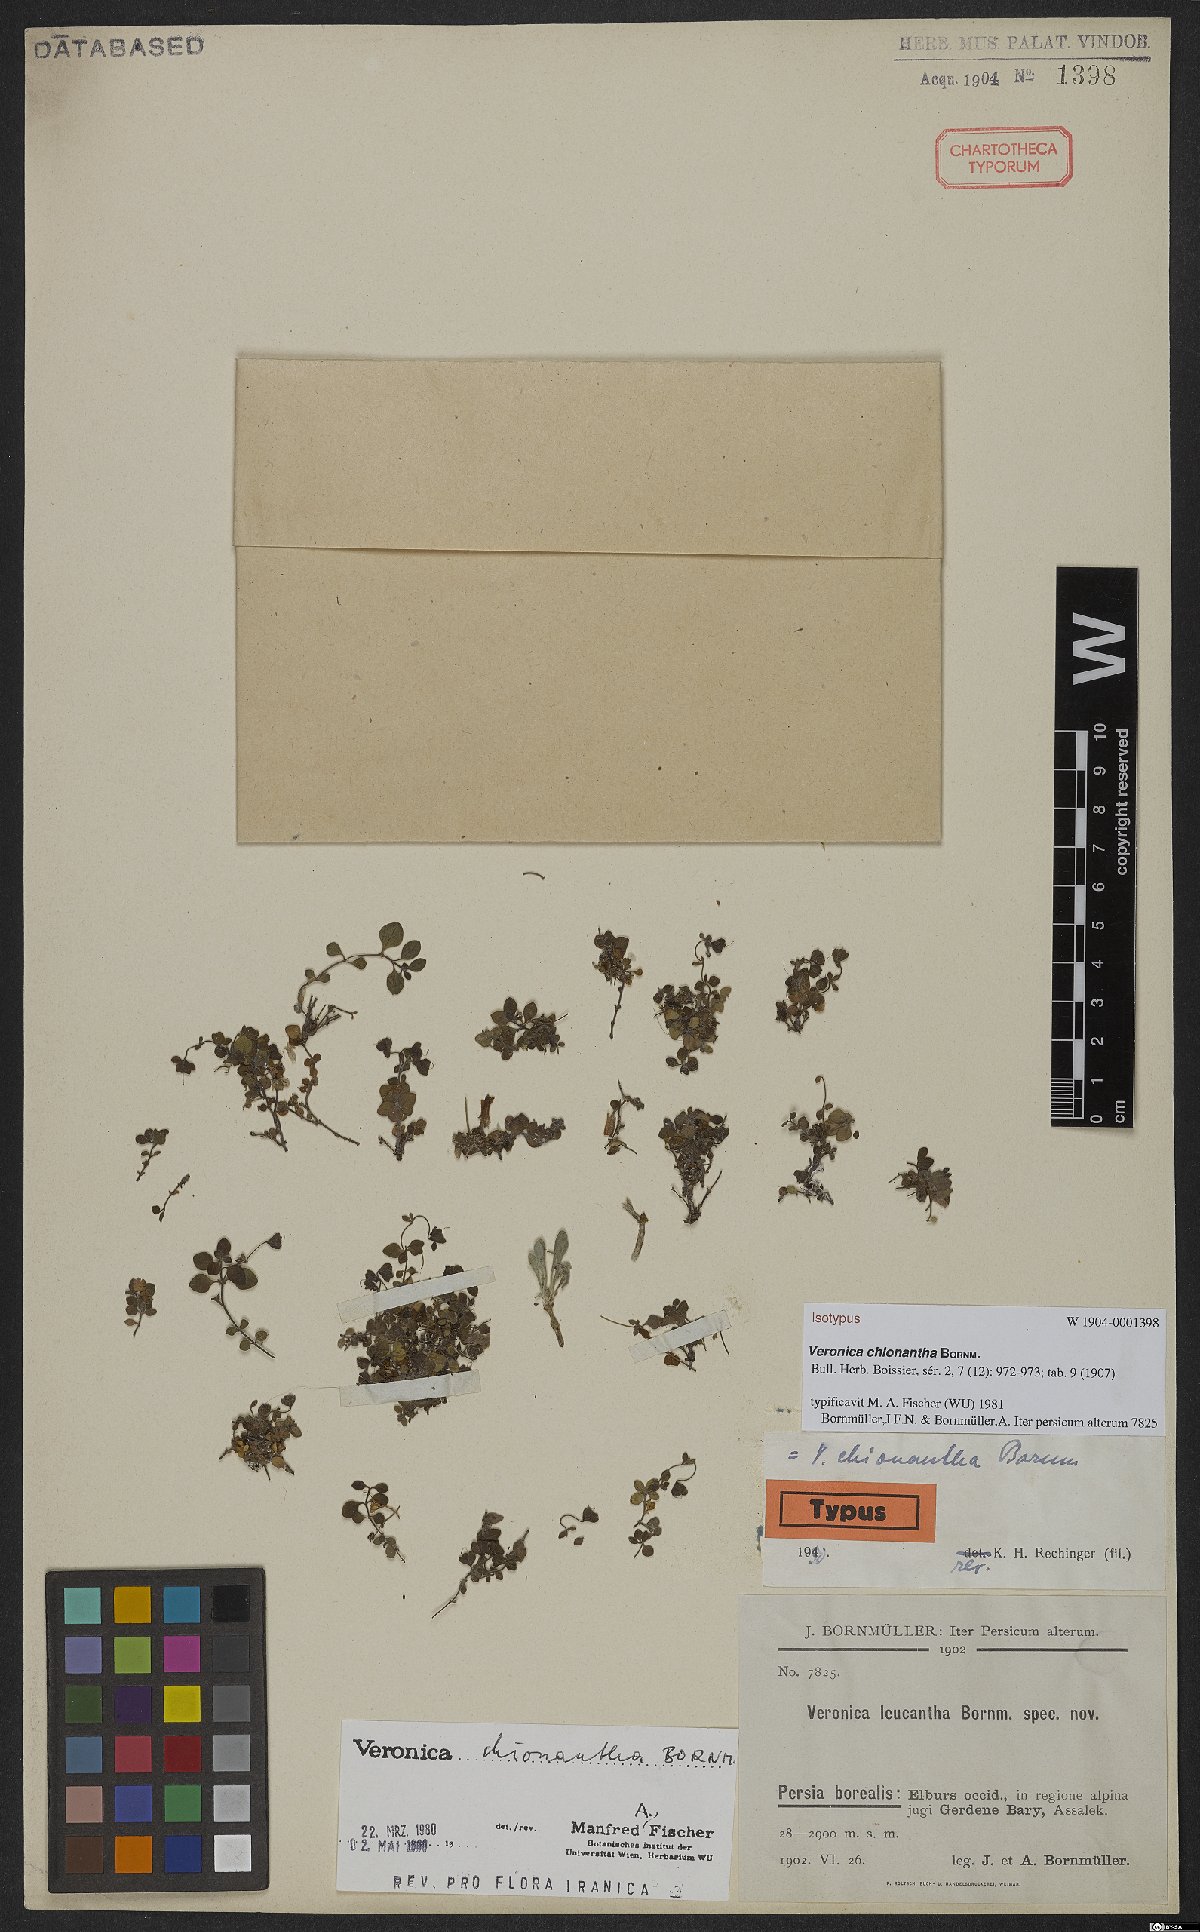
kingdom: Plantae
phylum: Tracheophyta
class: Magnoliopsida
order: Lamiales
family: Plantaginaceae
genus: Veronica
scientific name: Veronica chionantha
